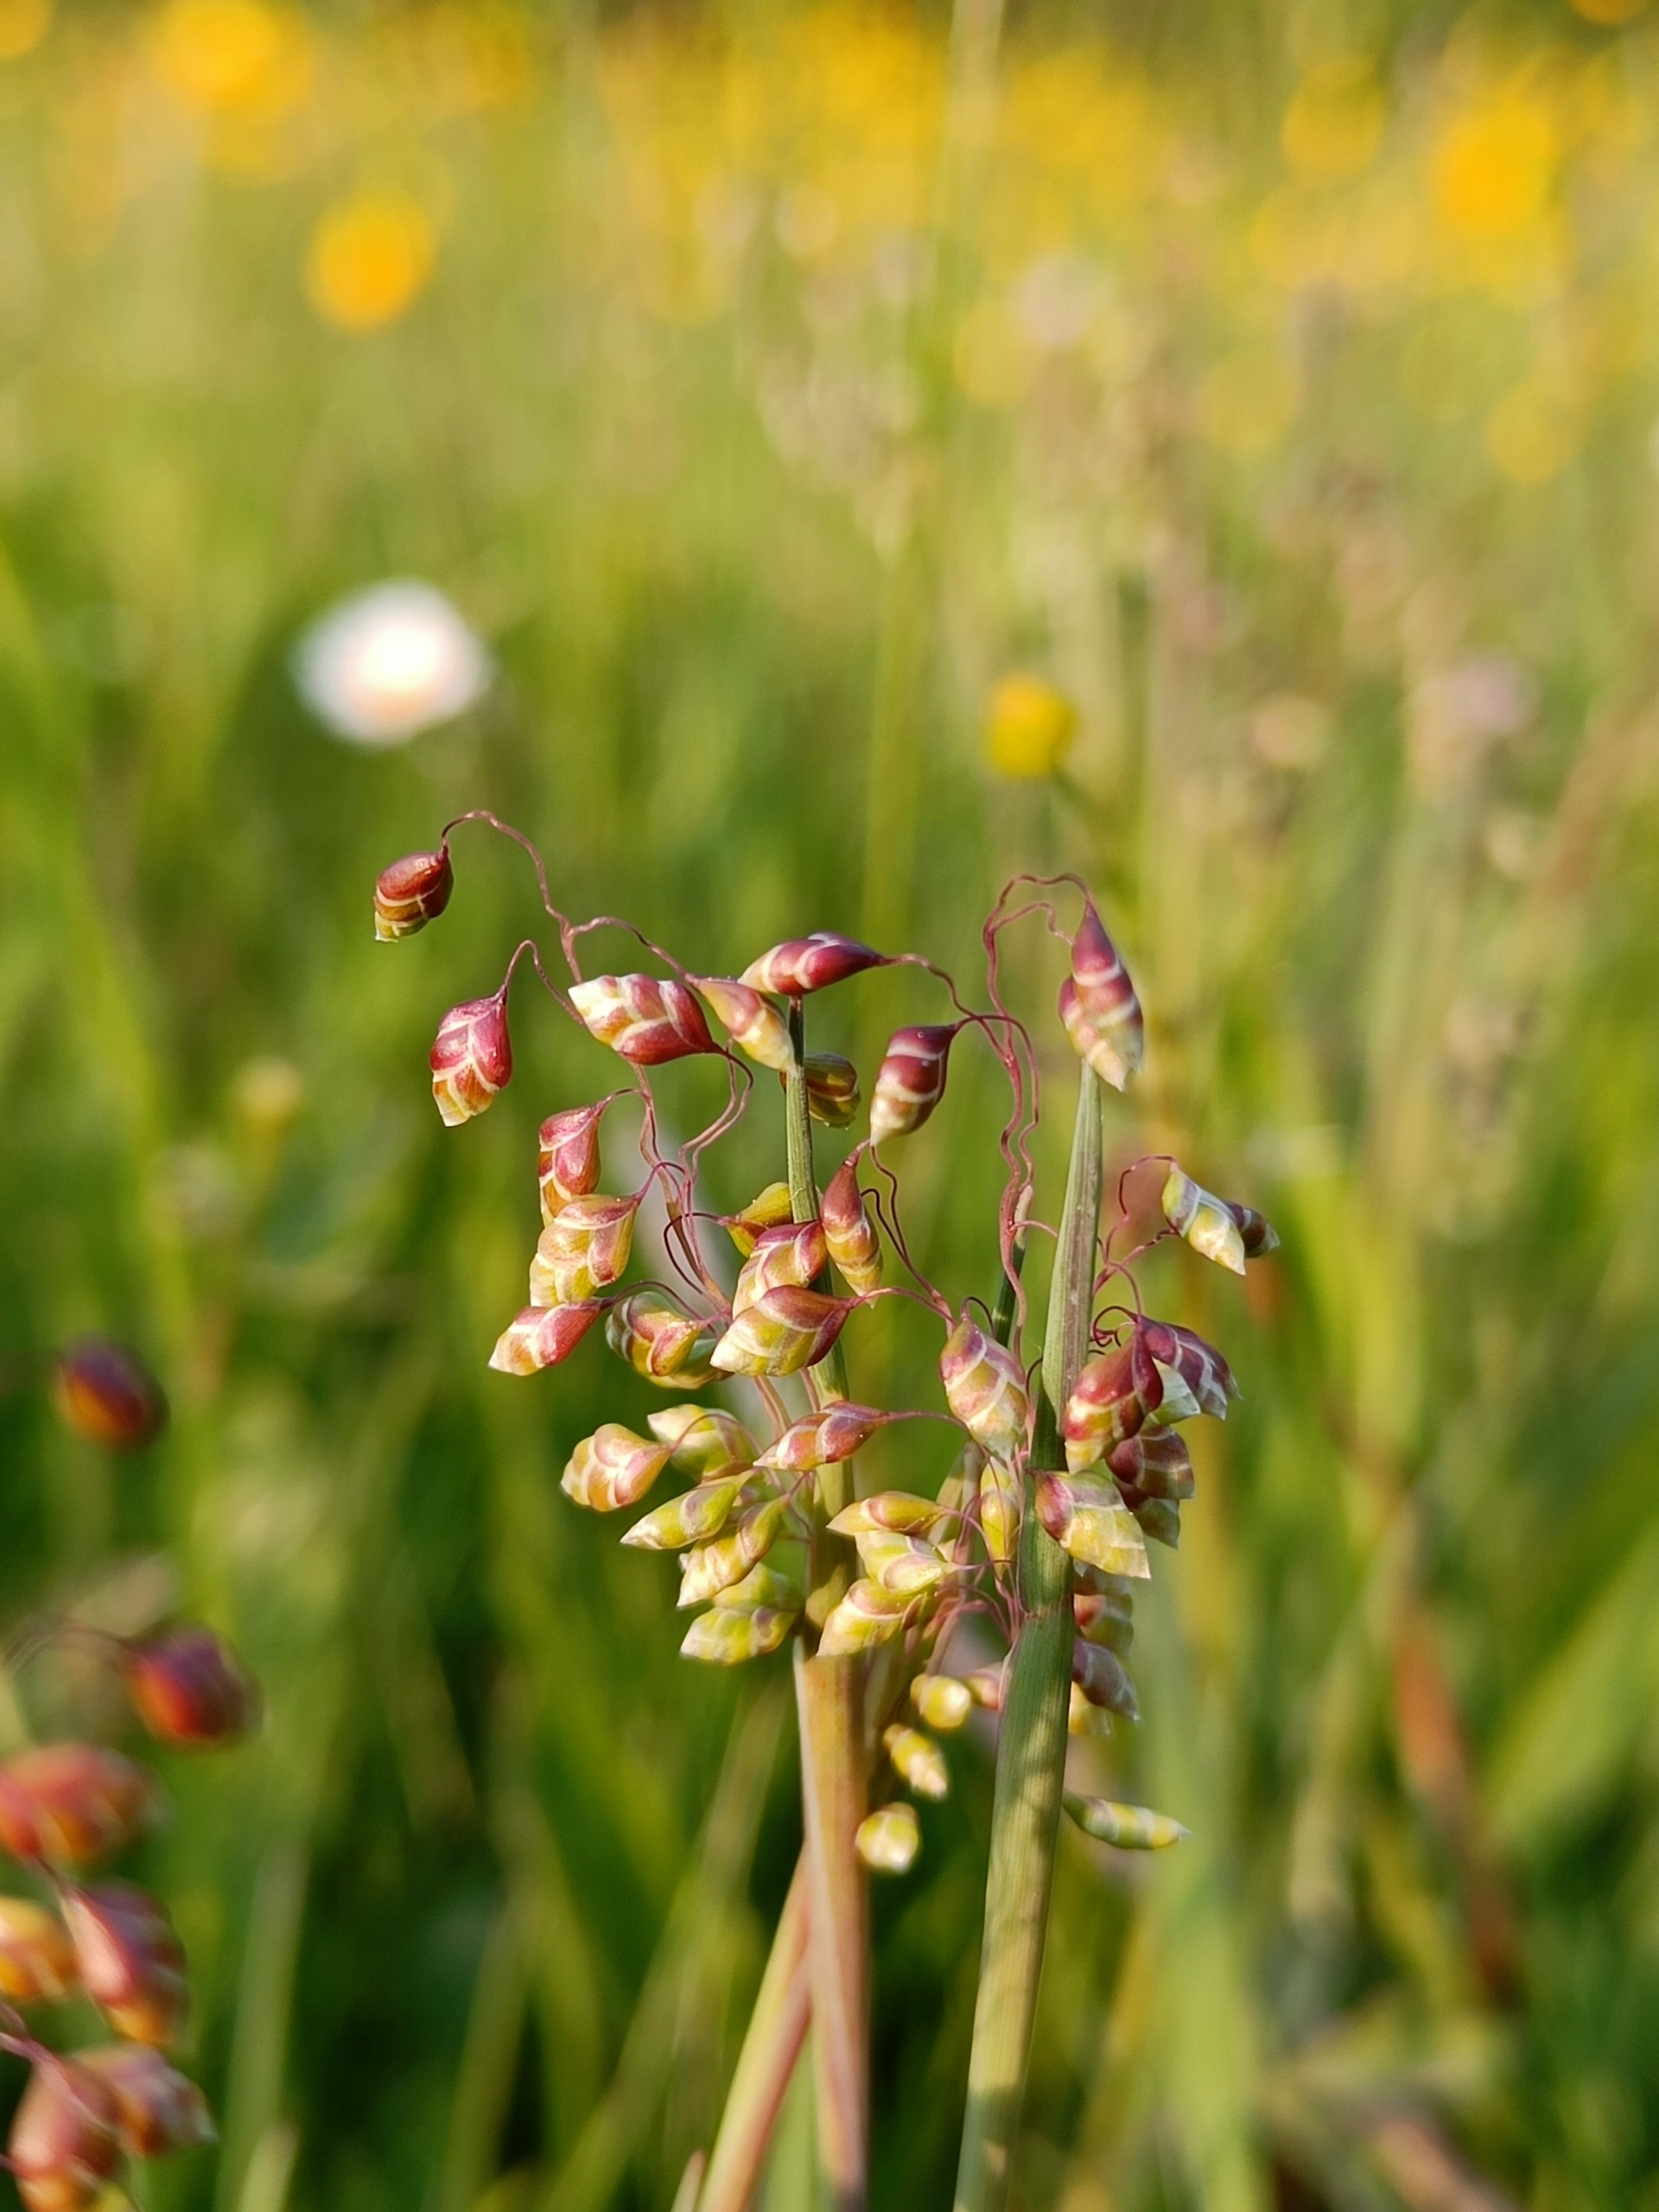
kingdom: Plantae
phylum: Tracheophyta
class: Liliopsida
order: Poales
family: Poaceae
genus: Briza
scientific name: Briza media
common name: Hjertegræs
